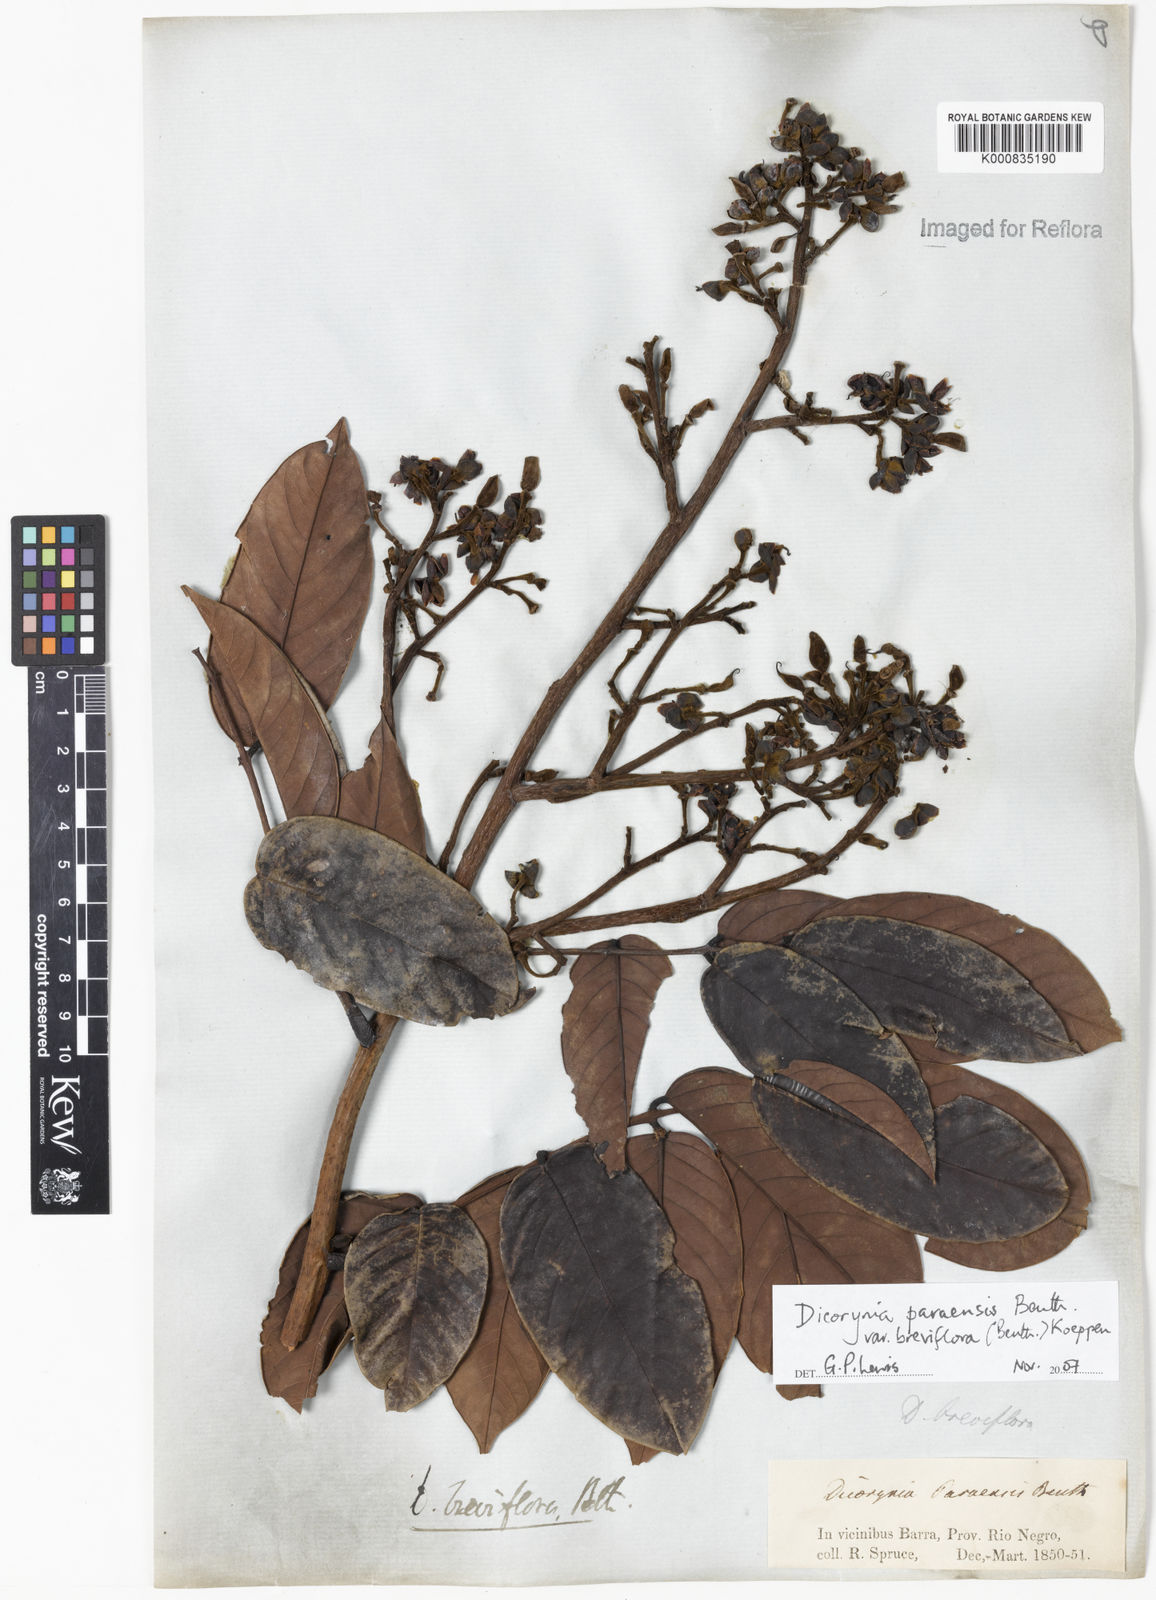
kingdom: Plantae
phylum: Tracheophyta
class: Magnoliopsida
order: Fabales
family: Fabaceae
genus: Dicorynia
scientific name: Dicorynia paraensis
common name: Angelique
